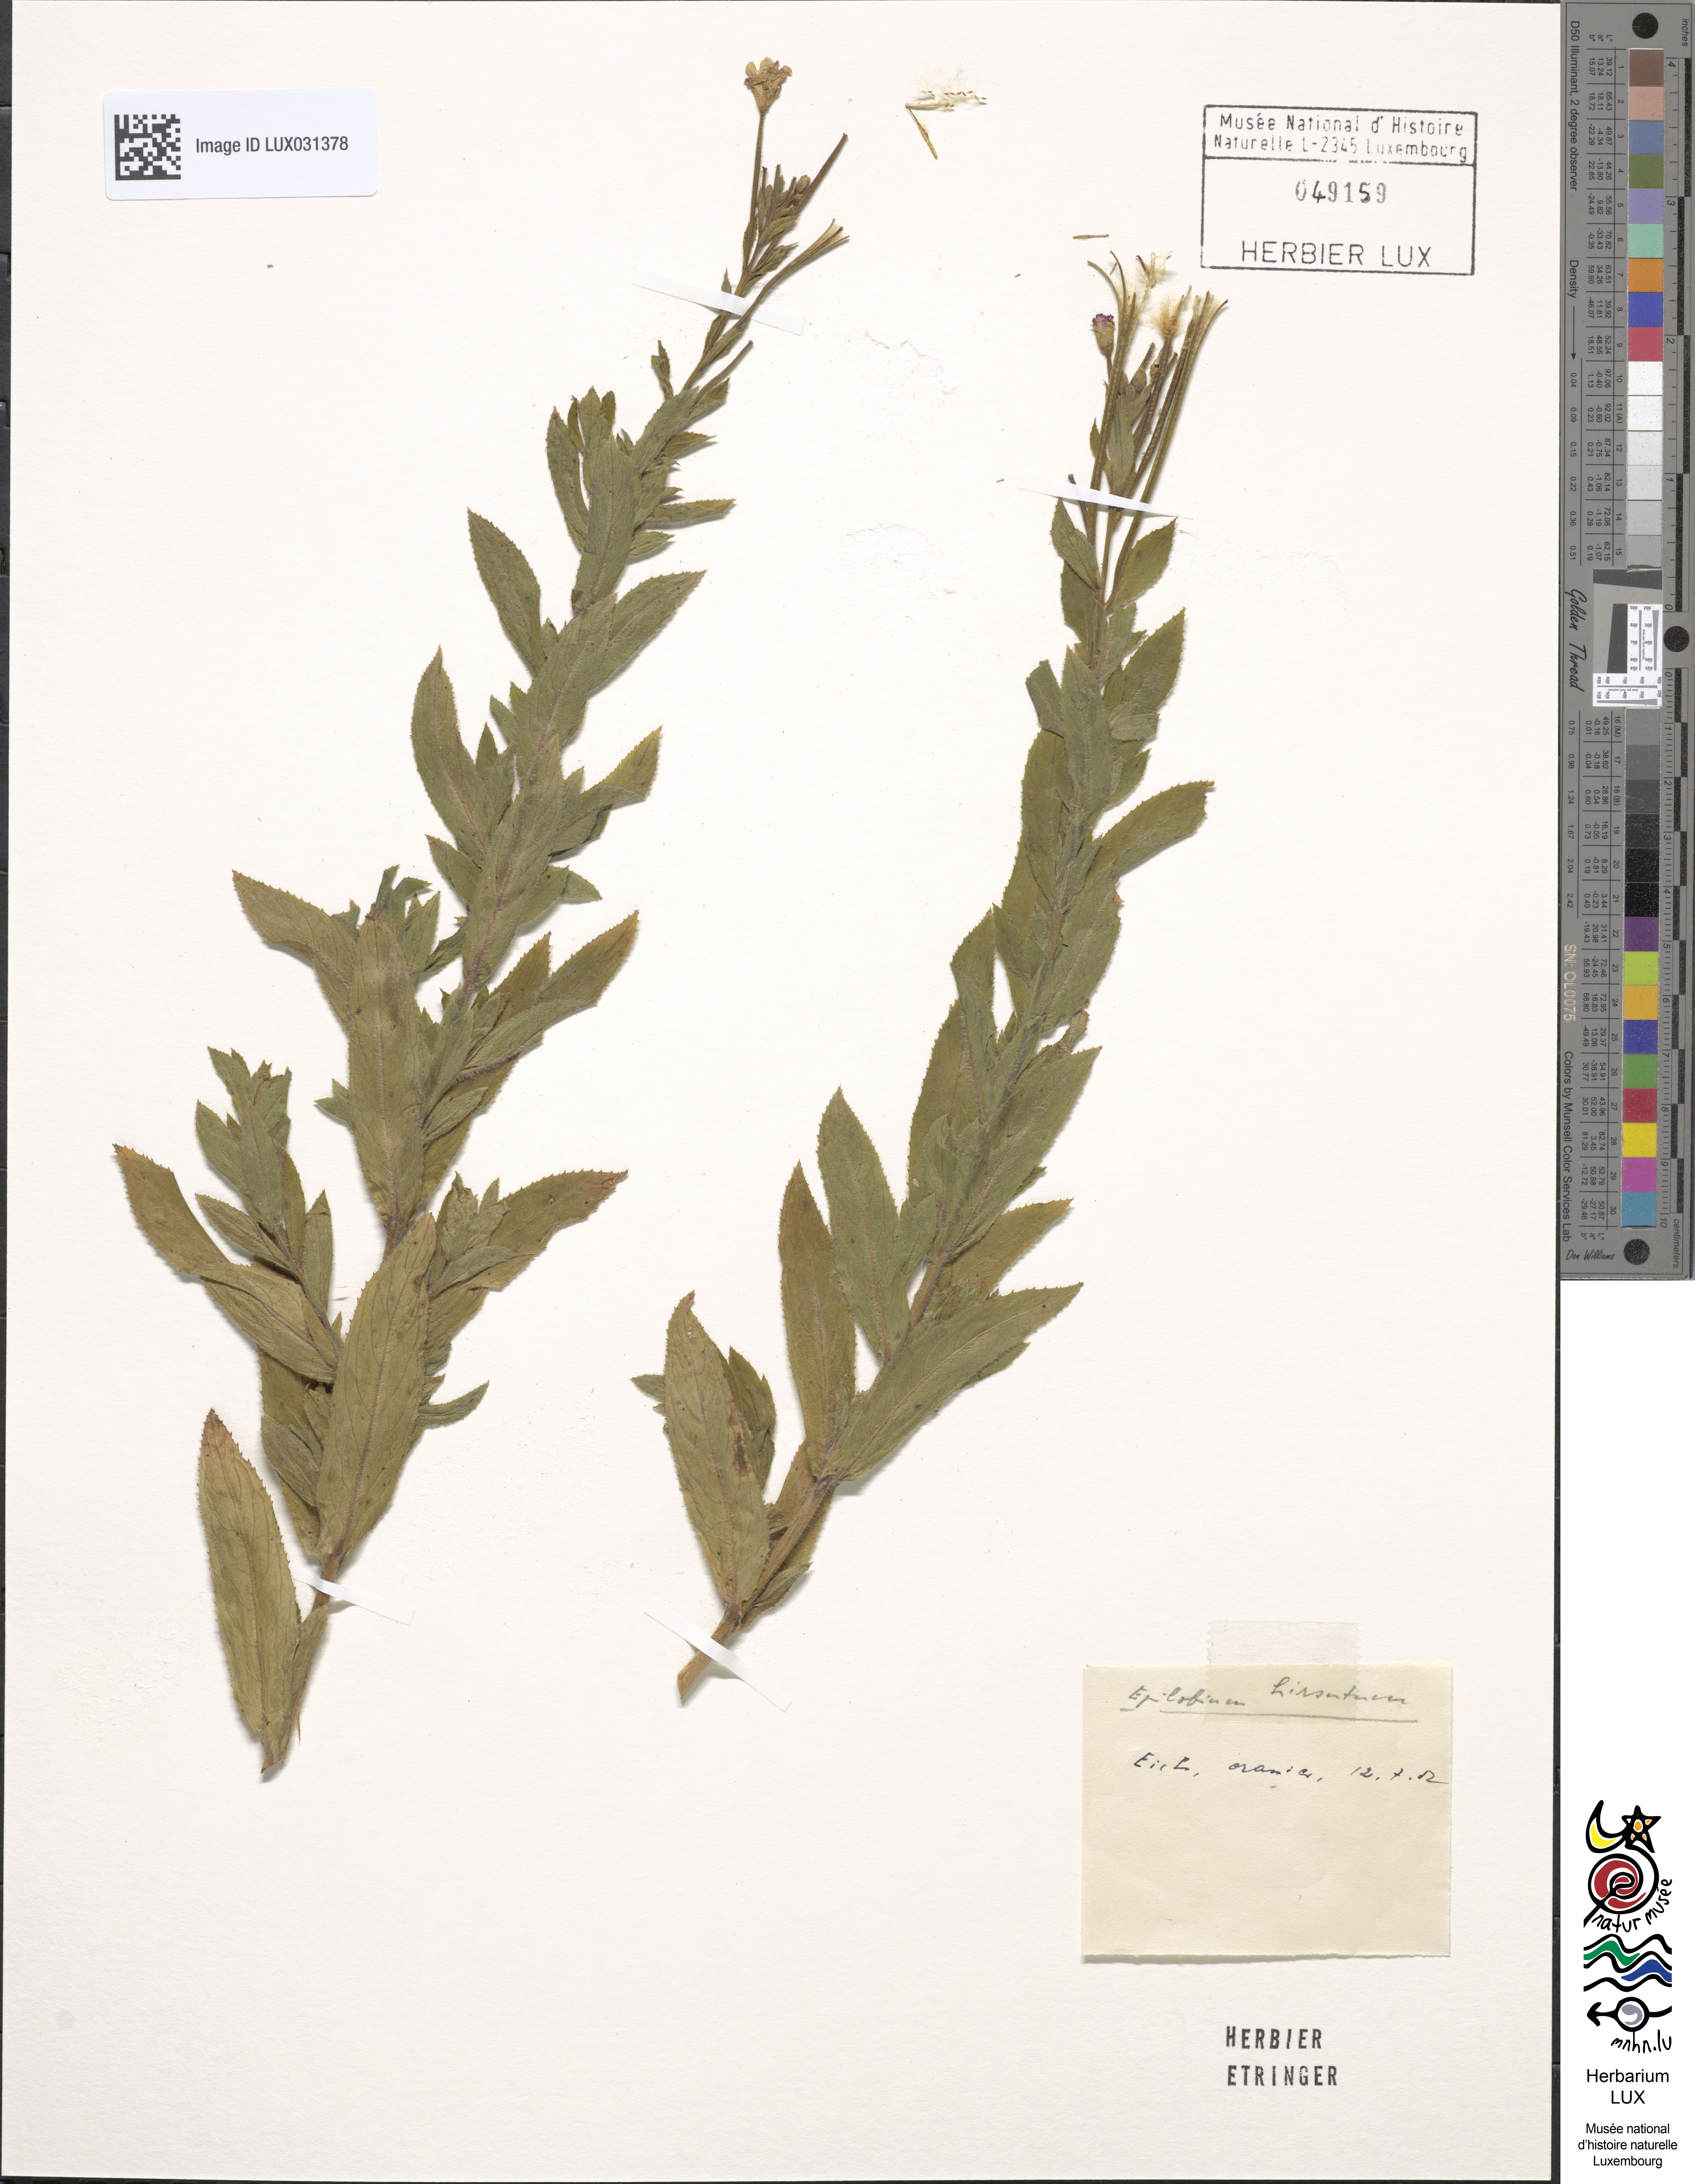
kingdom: Plantae
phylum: Tracheophyta
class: Magnoliopsida
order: Myrtales
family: Onagraceae
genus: Epilobium
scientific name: Epilobium hirsutum
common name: Great willowherb
